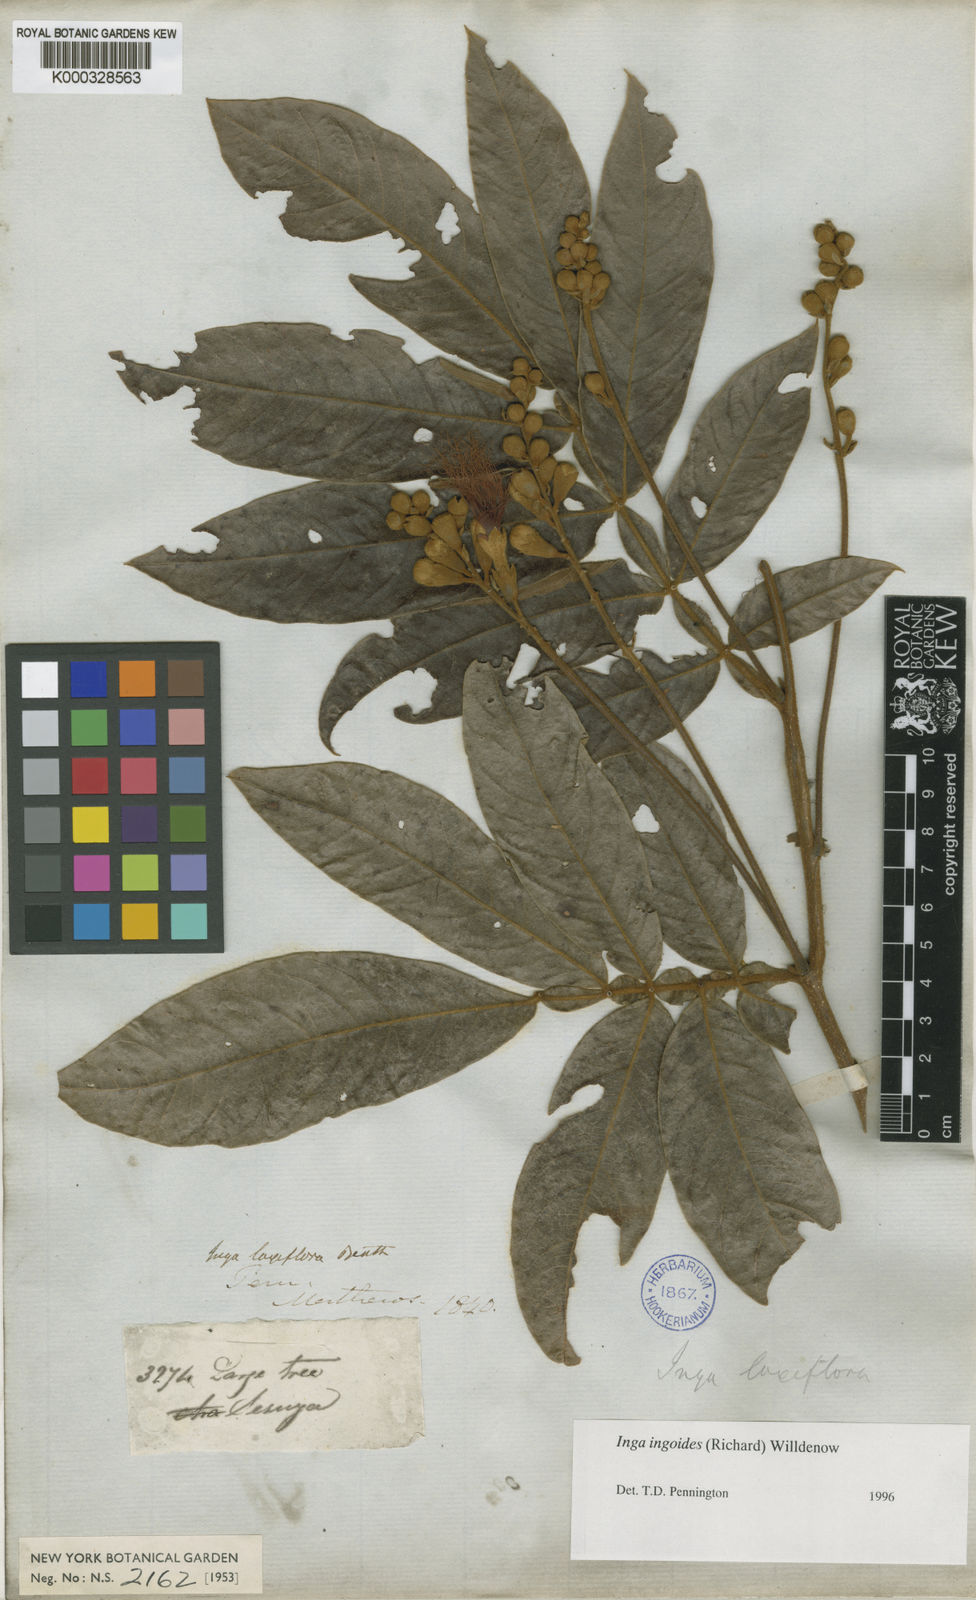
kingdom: Plantae
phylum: Tracheophyta
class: Magnoliopsida
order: Fabales
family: Fabaceae
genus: Inga
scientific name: Inga ingoides
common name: Spanish ash
